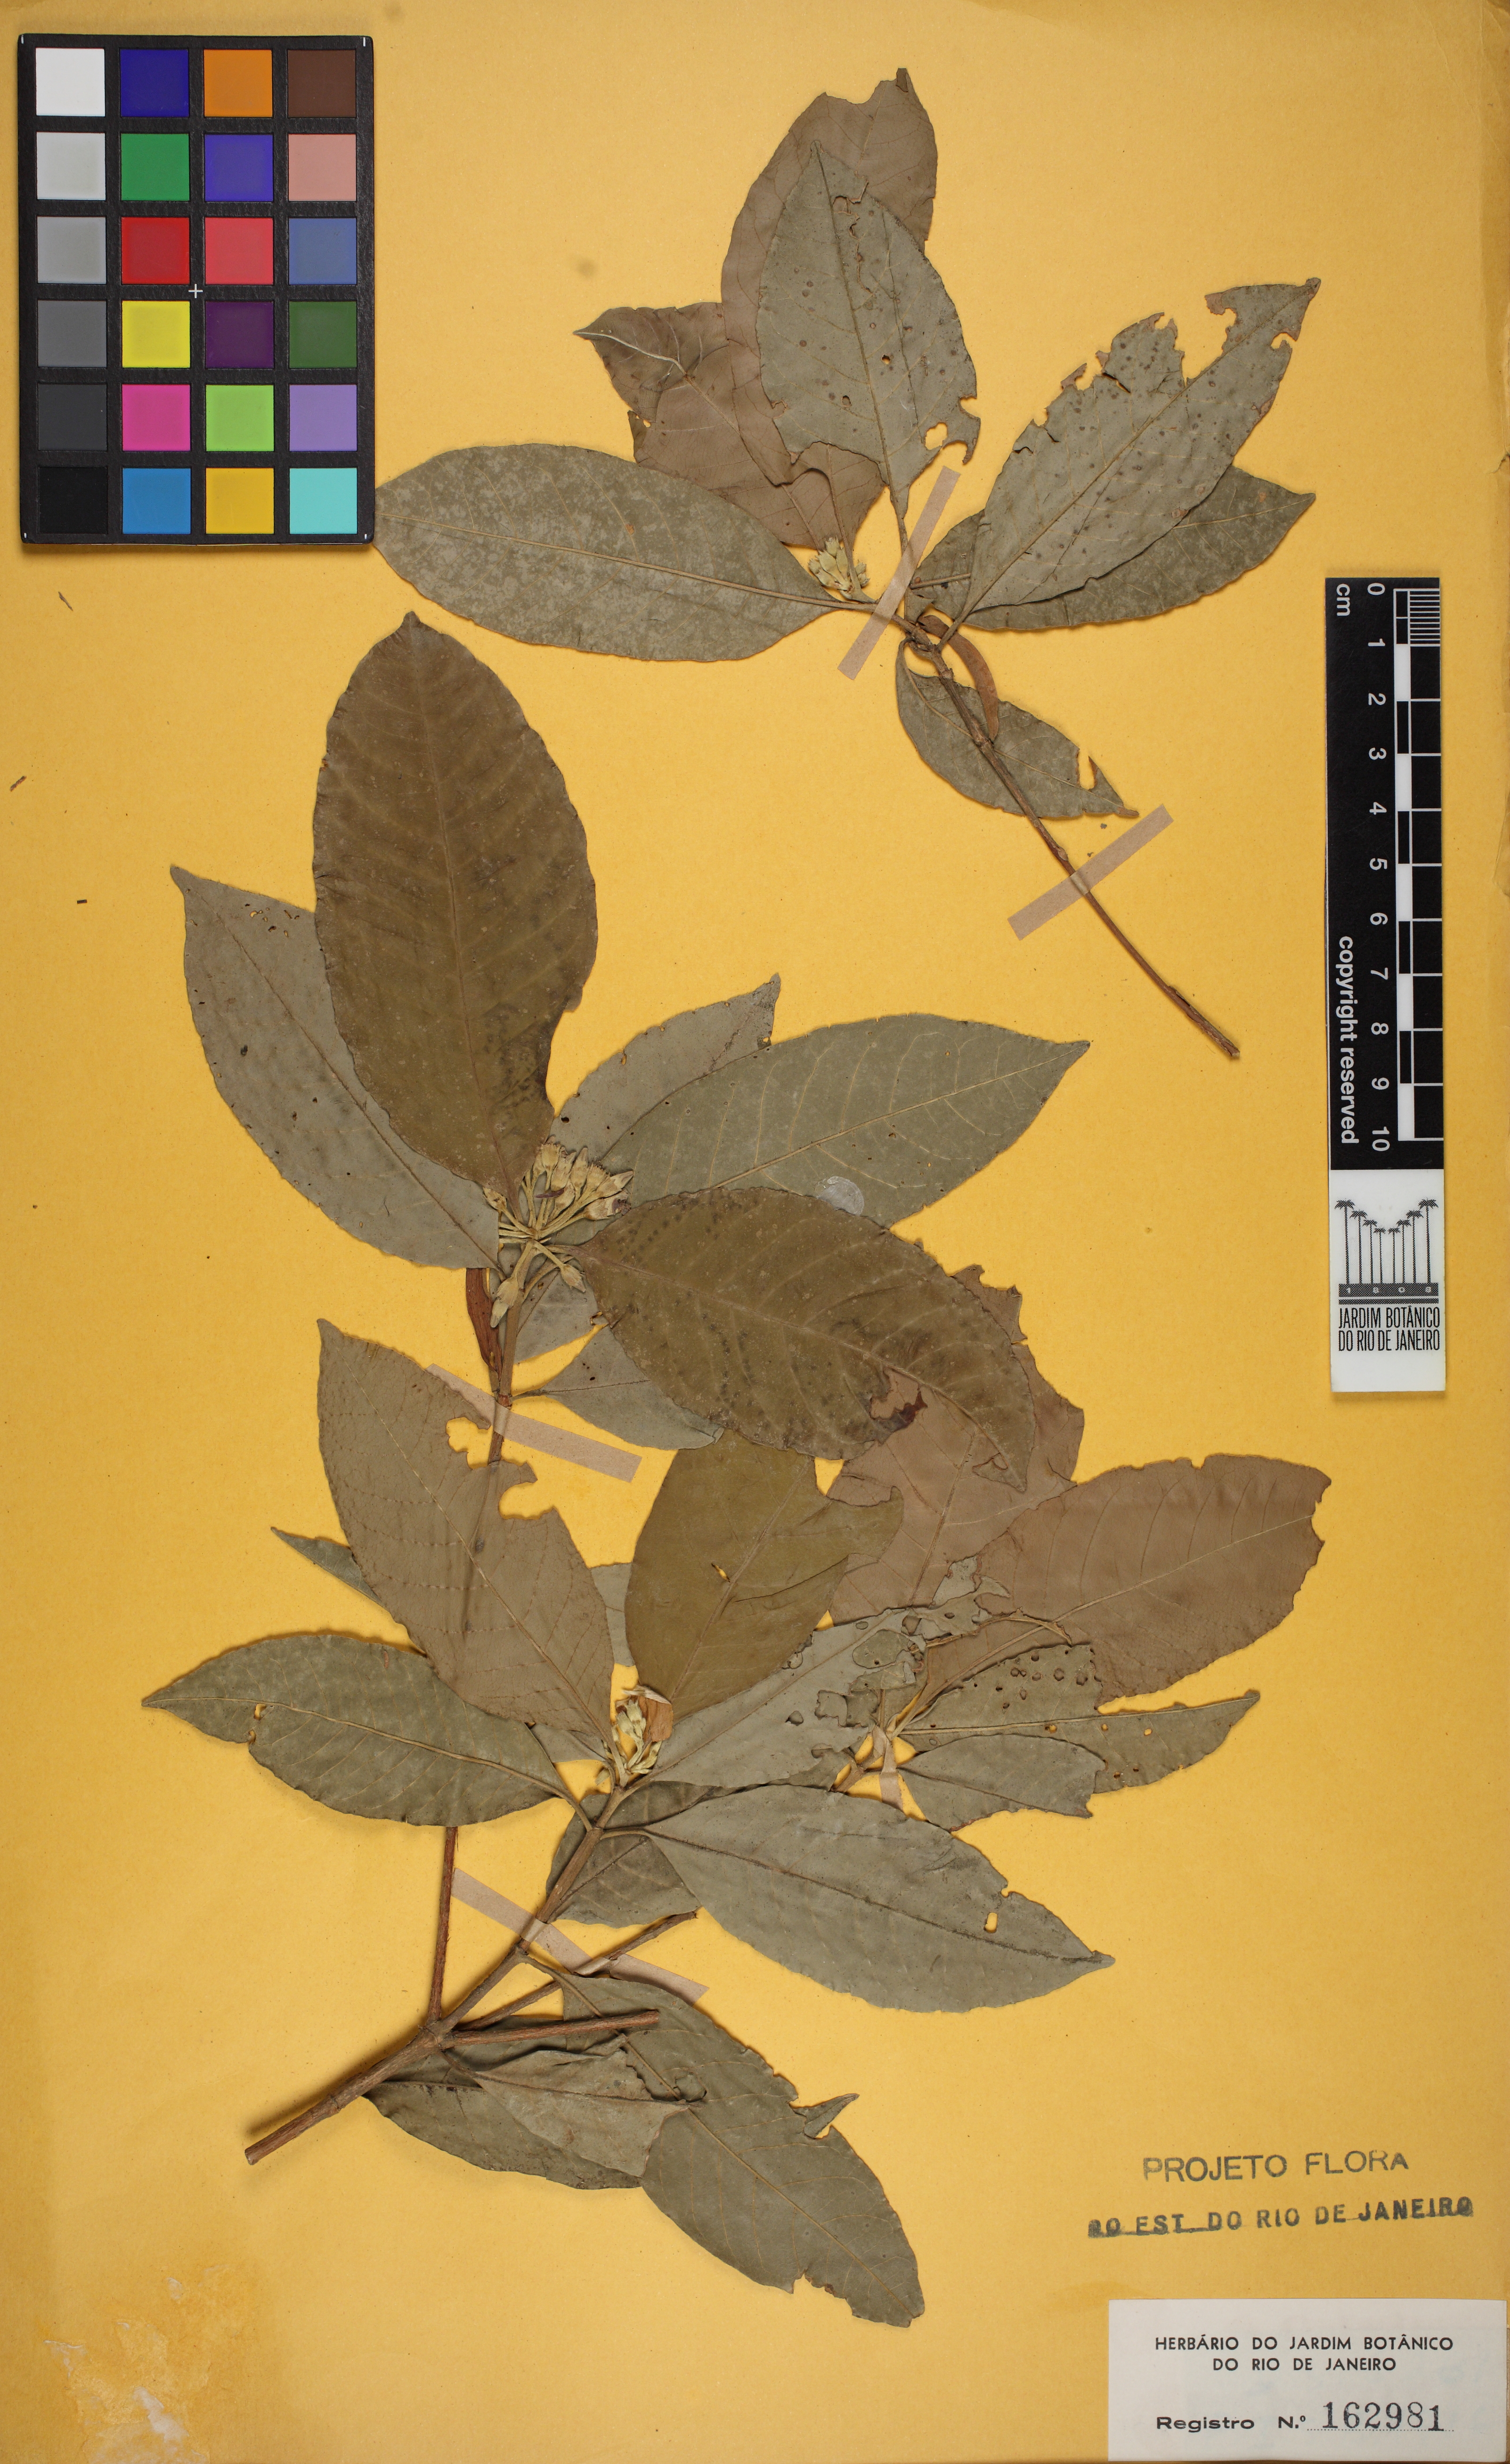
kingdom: Plantae
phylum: Tracheophyta
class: Magnoliopsida
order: Gentianales
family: Rubiaceae
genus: Amaioua
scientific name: Amaioua intermedia
